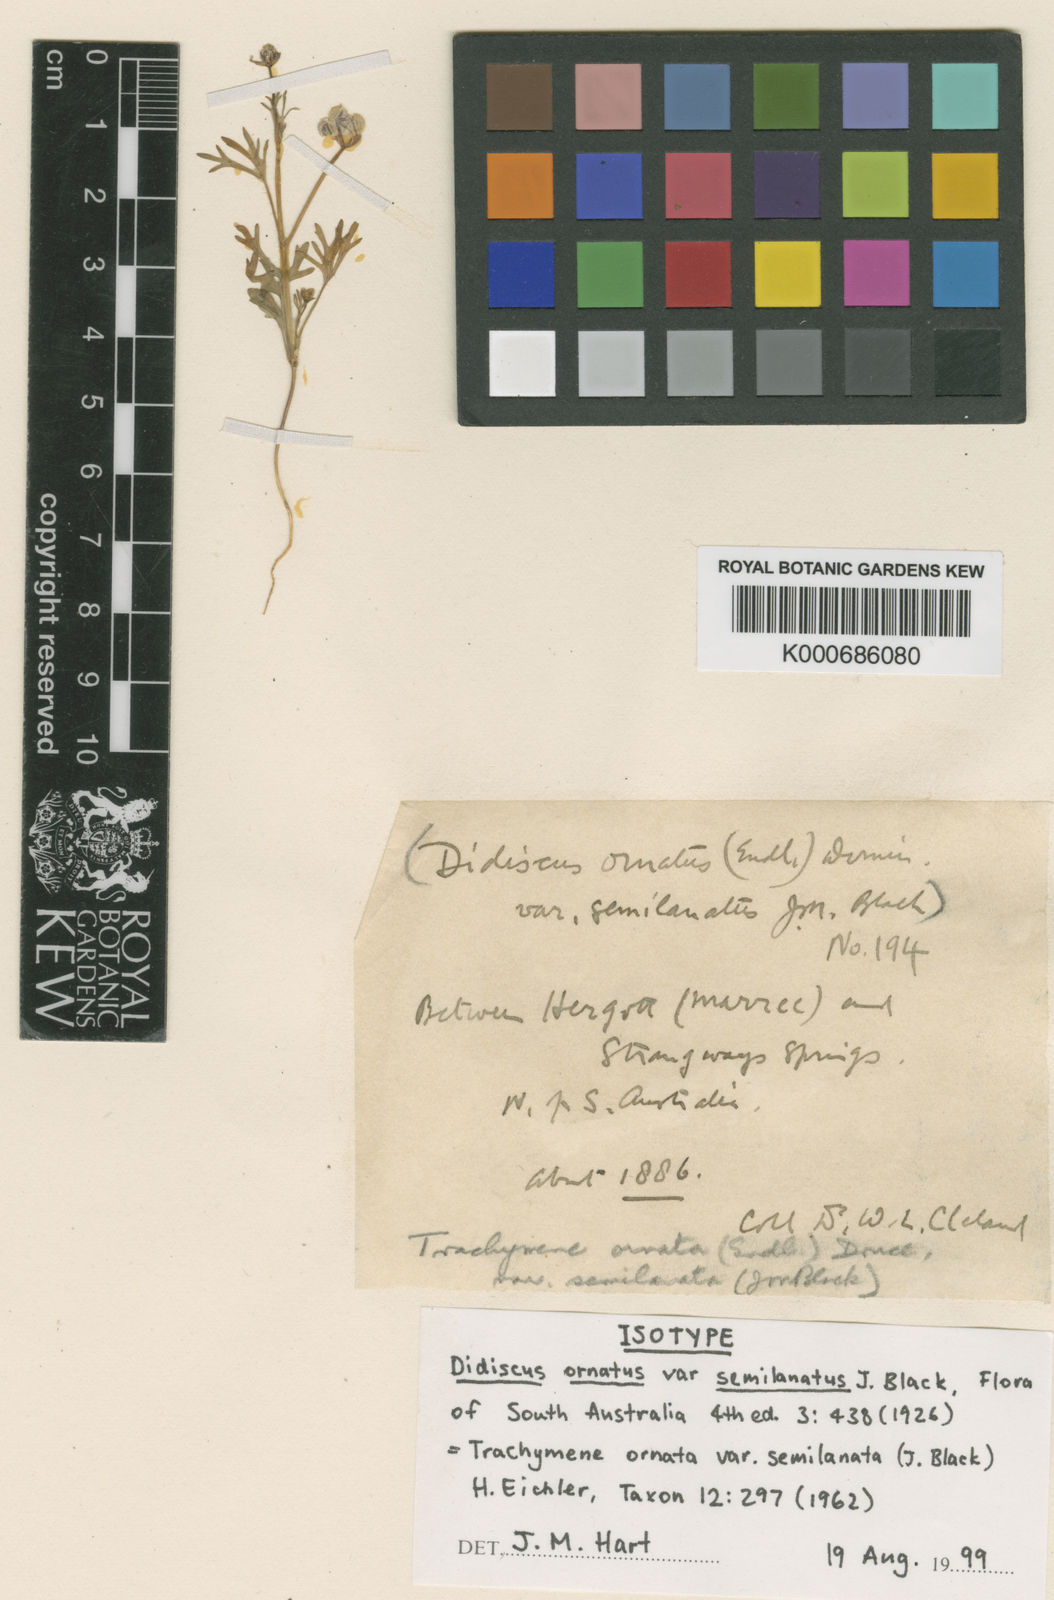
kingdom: Plantae
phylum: Tracheophyta
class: Magnoliopsida
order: Apiales
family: Araliaceae
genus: Trachymene
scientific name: Trachymene ornata
